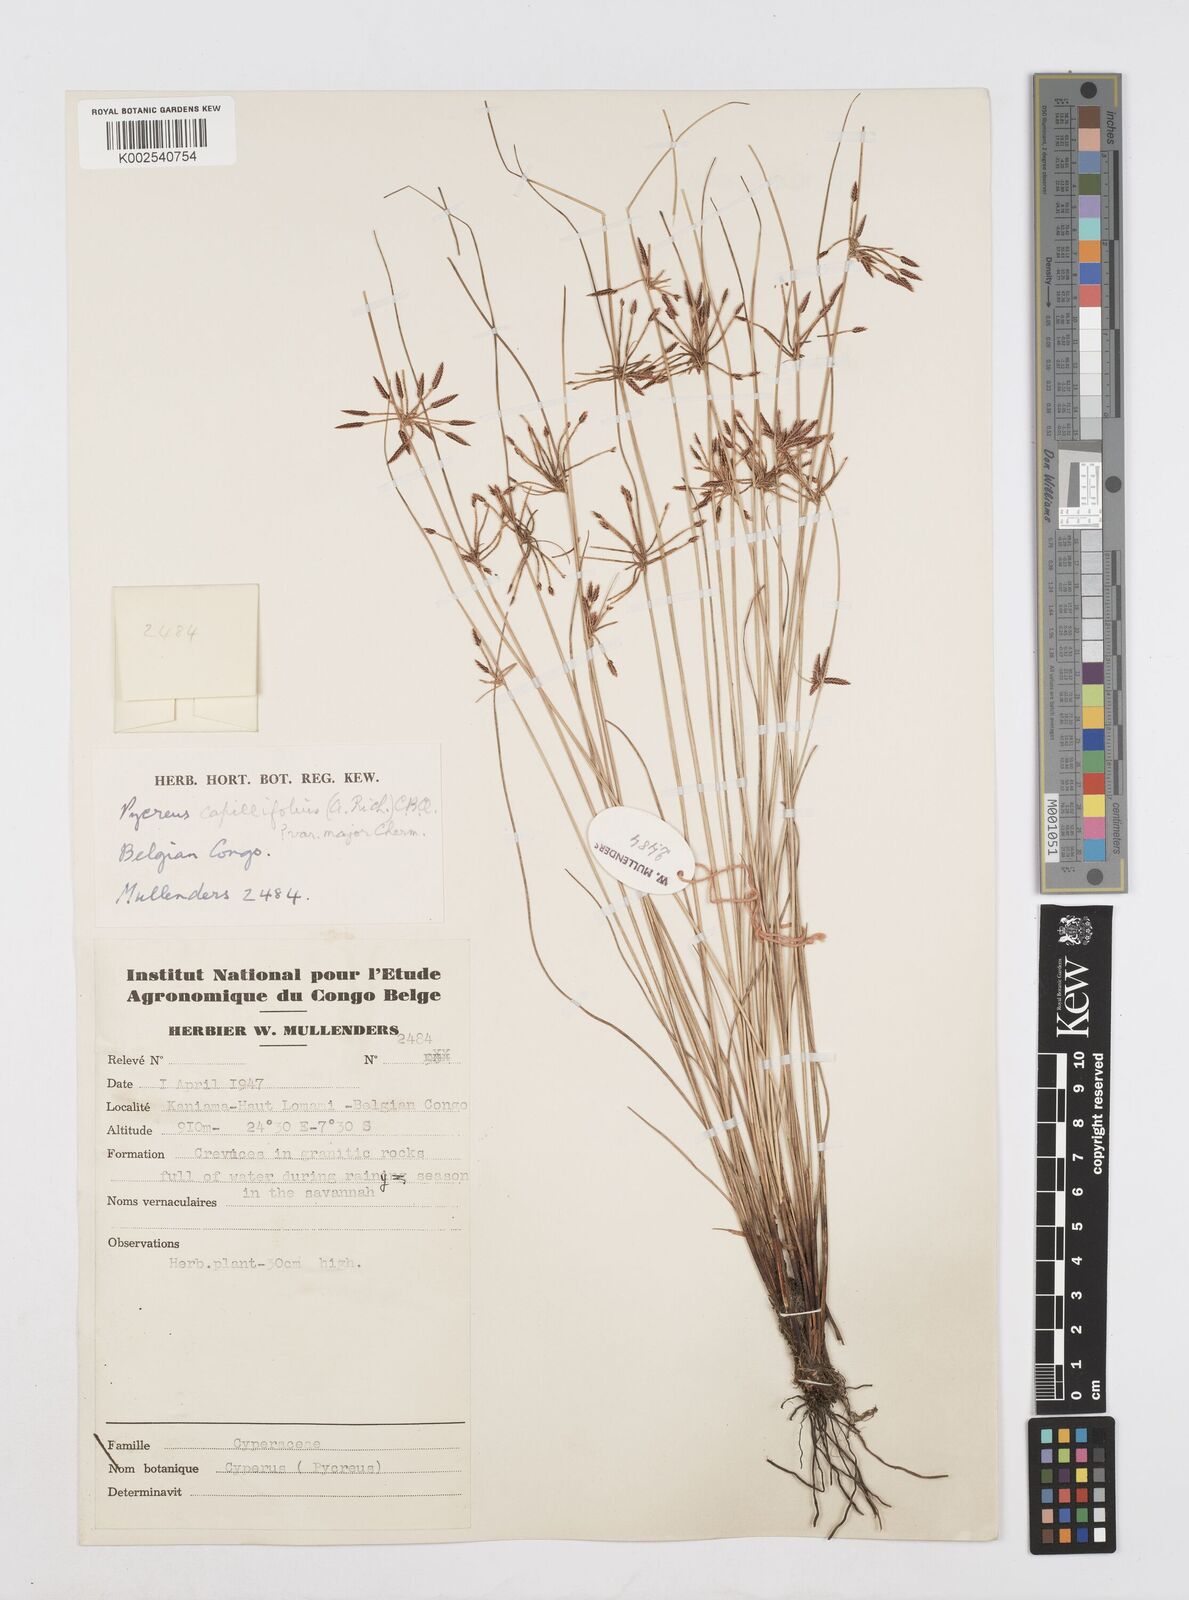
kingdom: Plantae
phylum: Tracheophyta
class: Liliopsida
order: Poales
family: Cyperaceae
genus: Cyperus
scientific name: Cyperus capillifolius
